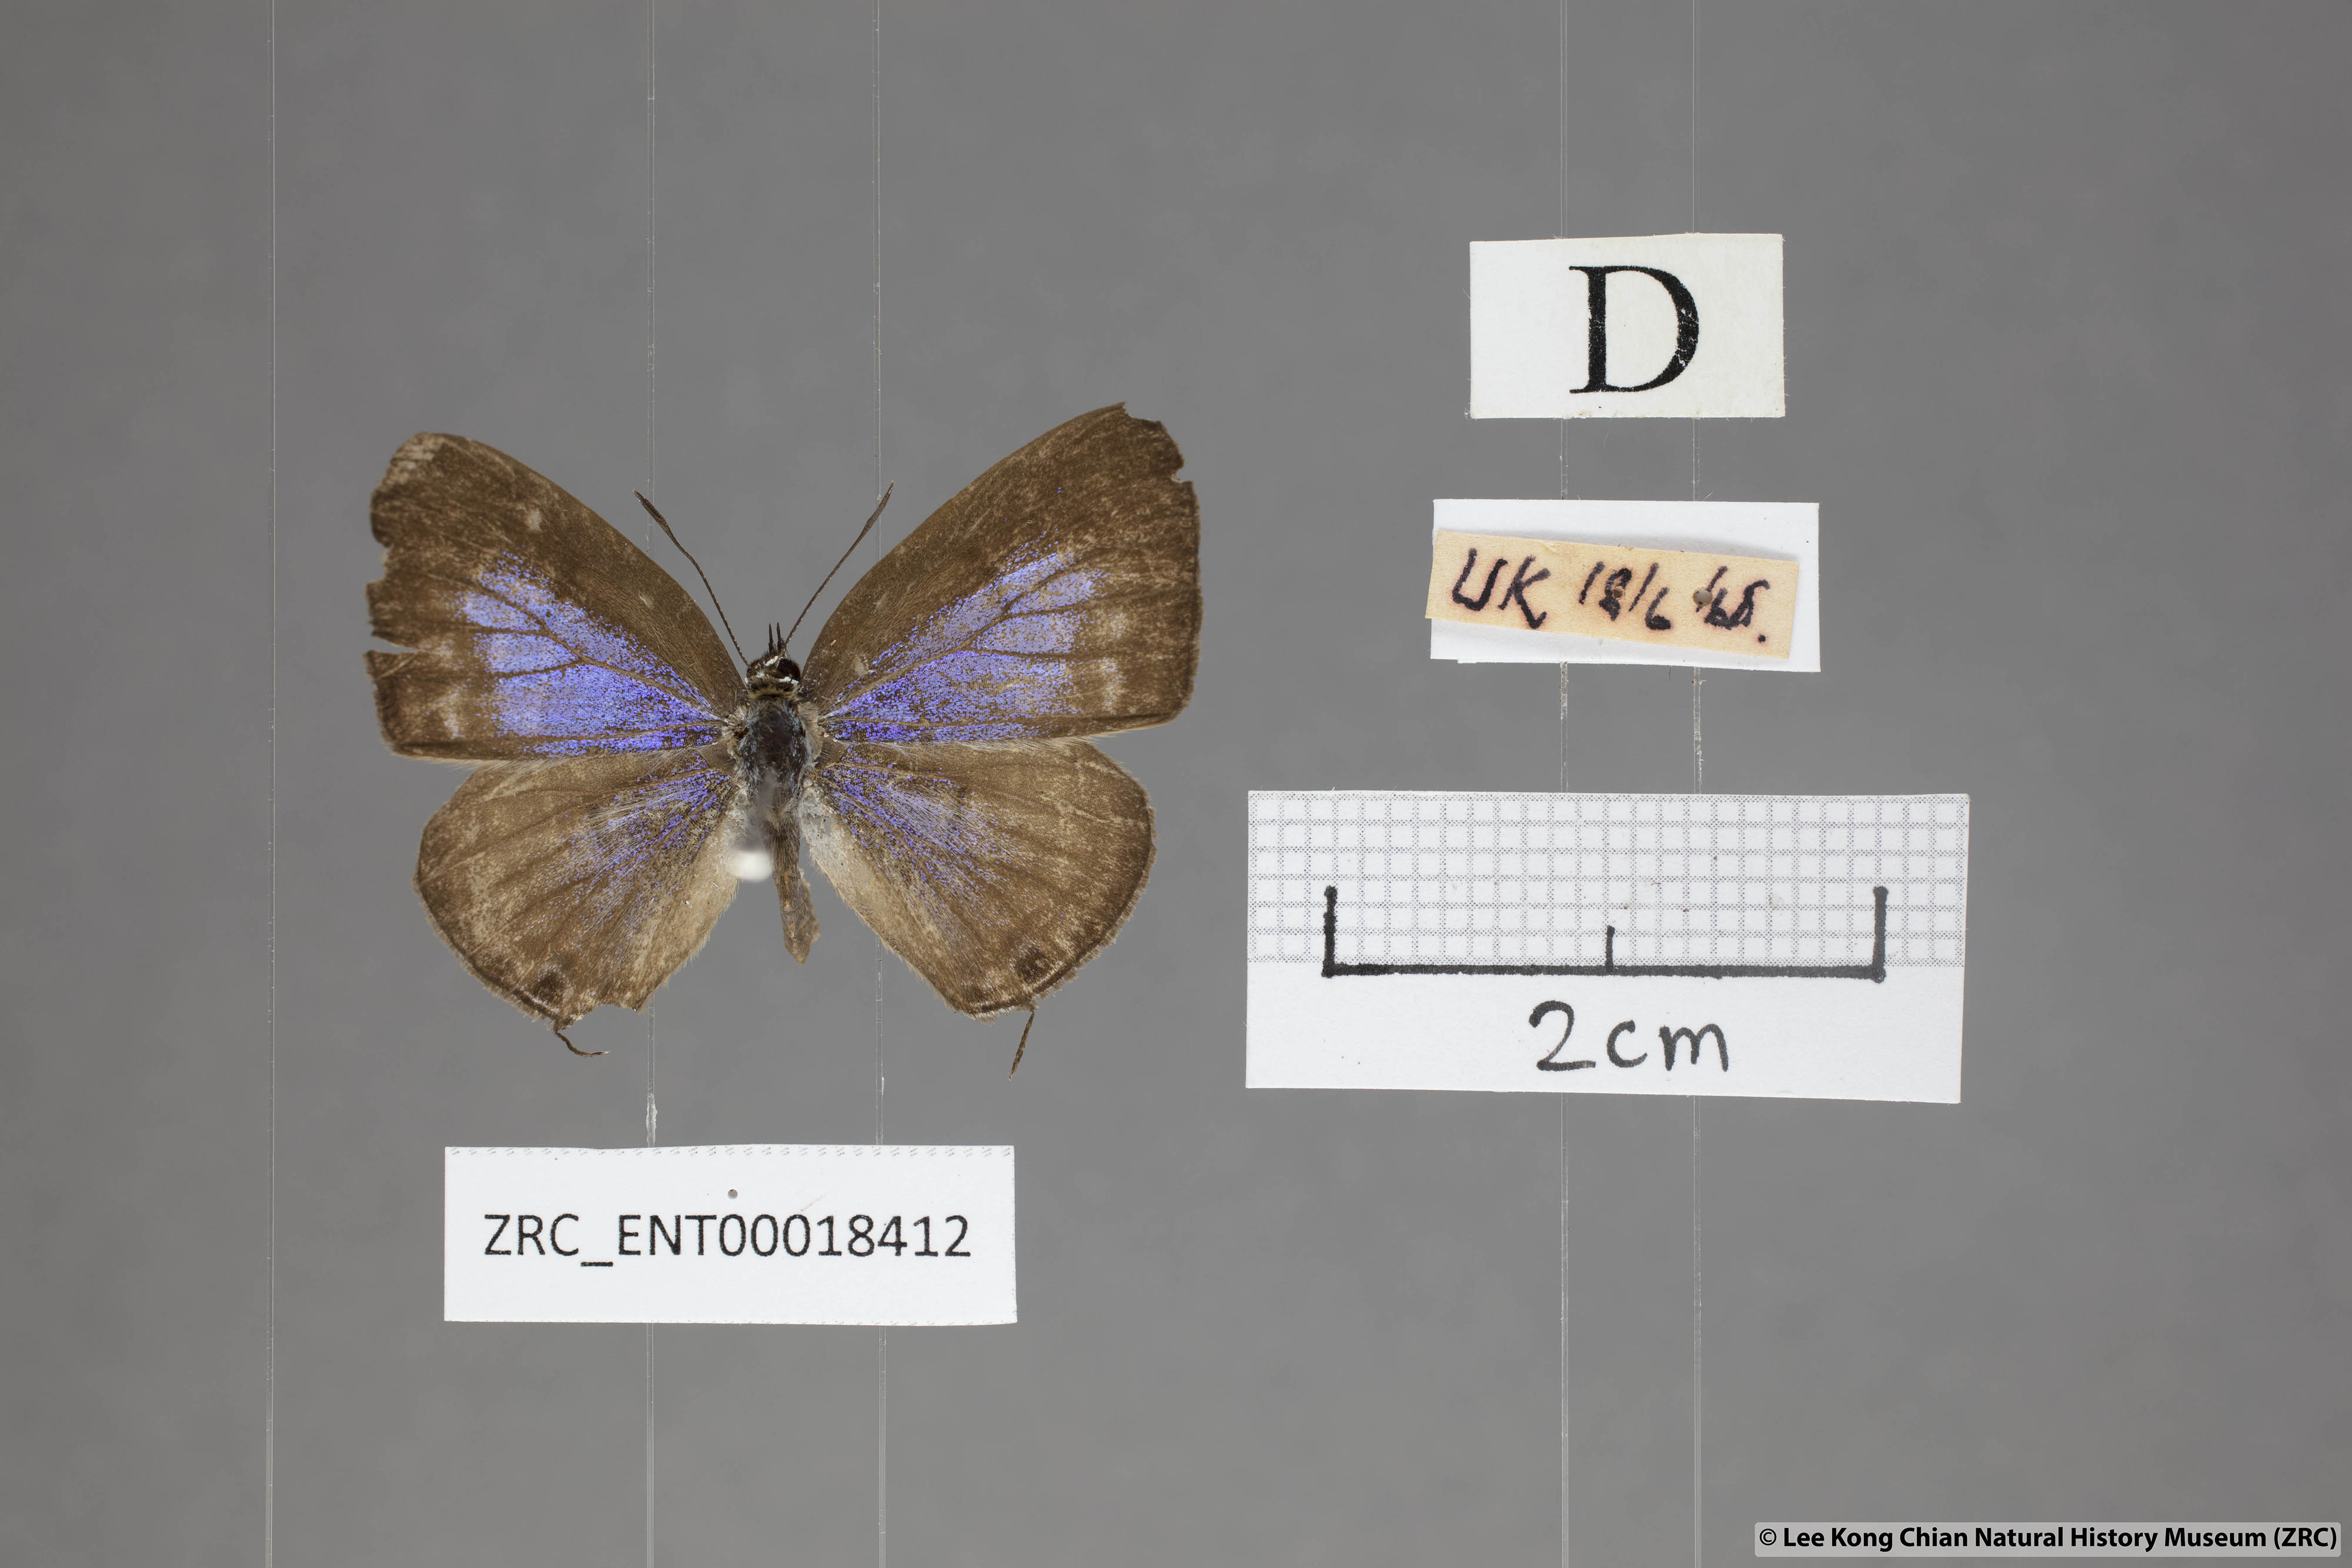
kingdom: Animalia
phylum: Arthropoda
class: Insecta
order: Lepidoptera
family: Lycaenidae
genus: Nacaduba
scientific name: Nacaduba pactolus
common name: Large fourline blue
